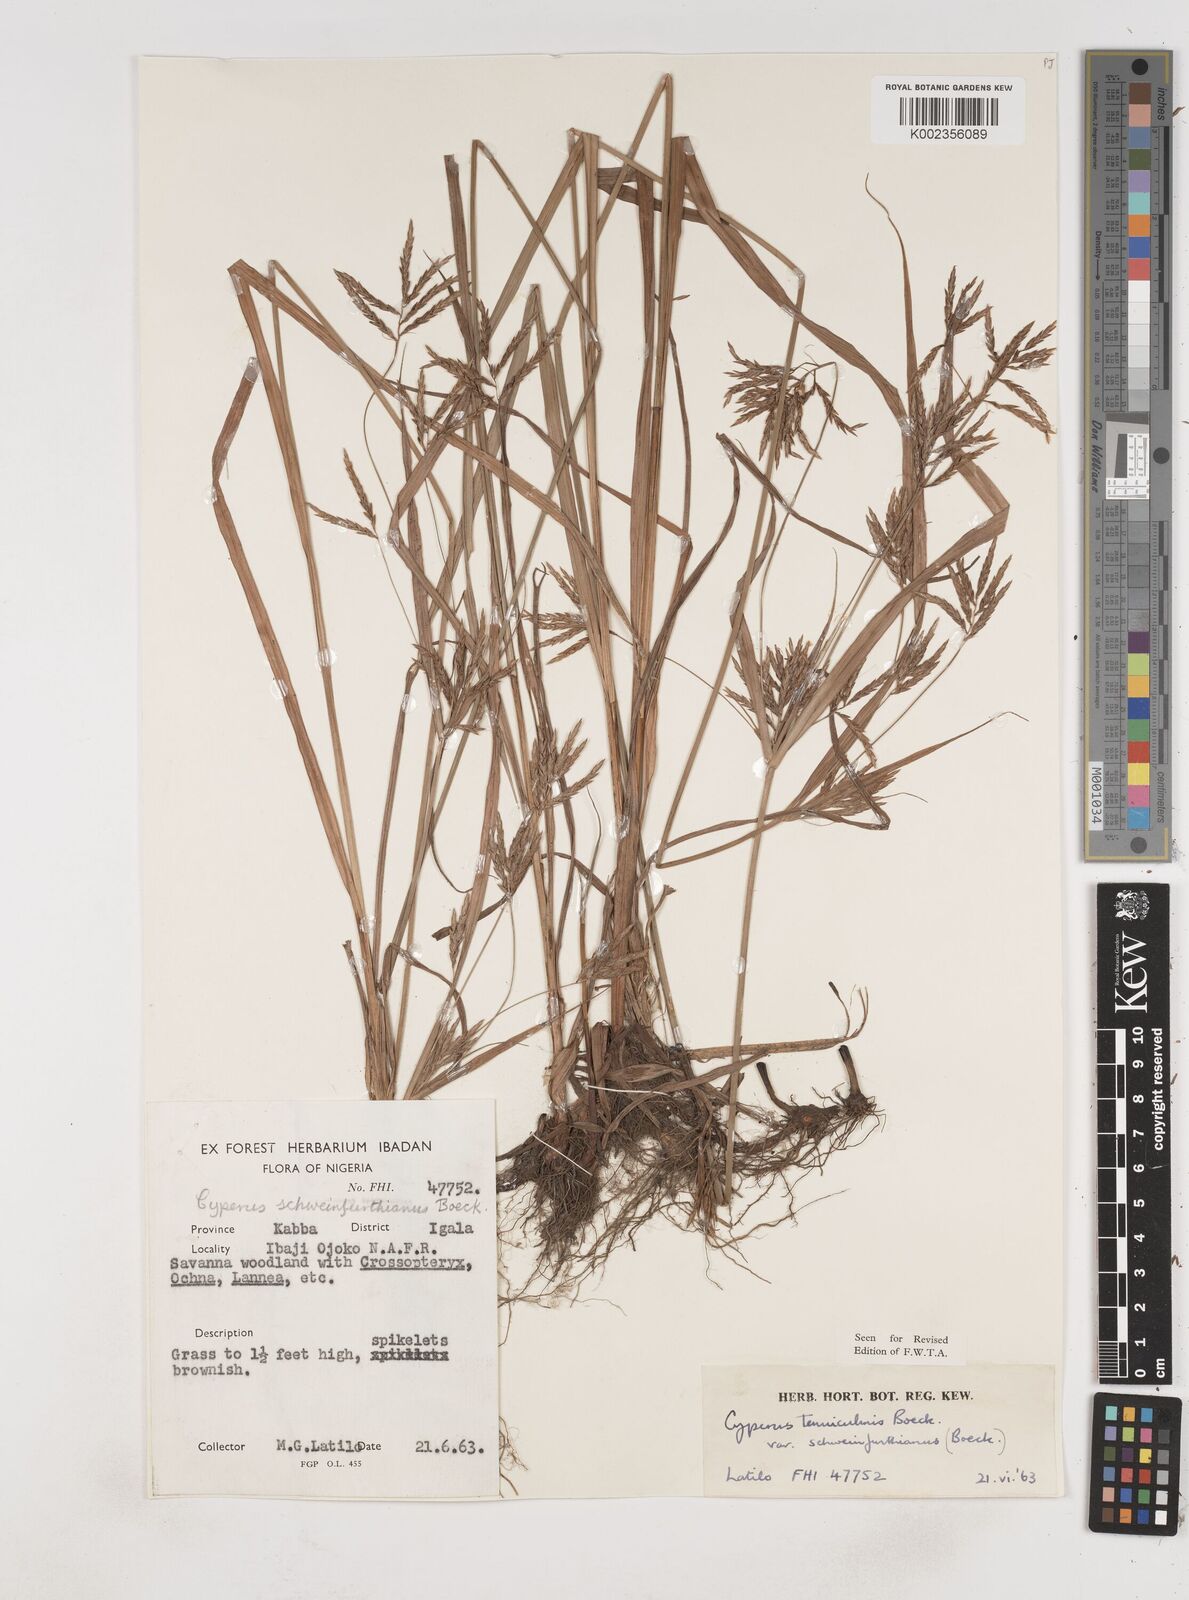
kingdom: Plantae
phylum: Tracheophyta
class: Liliopsida
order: Poales
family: Cyperaceae
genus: Cyperus
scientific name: Cyperus tenuiculmis
